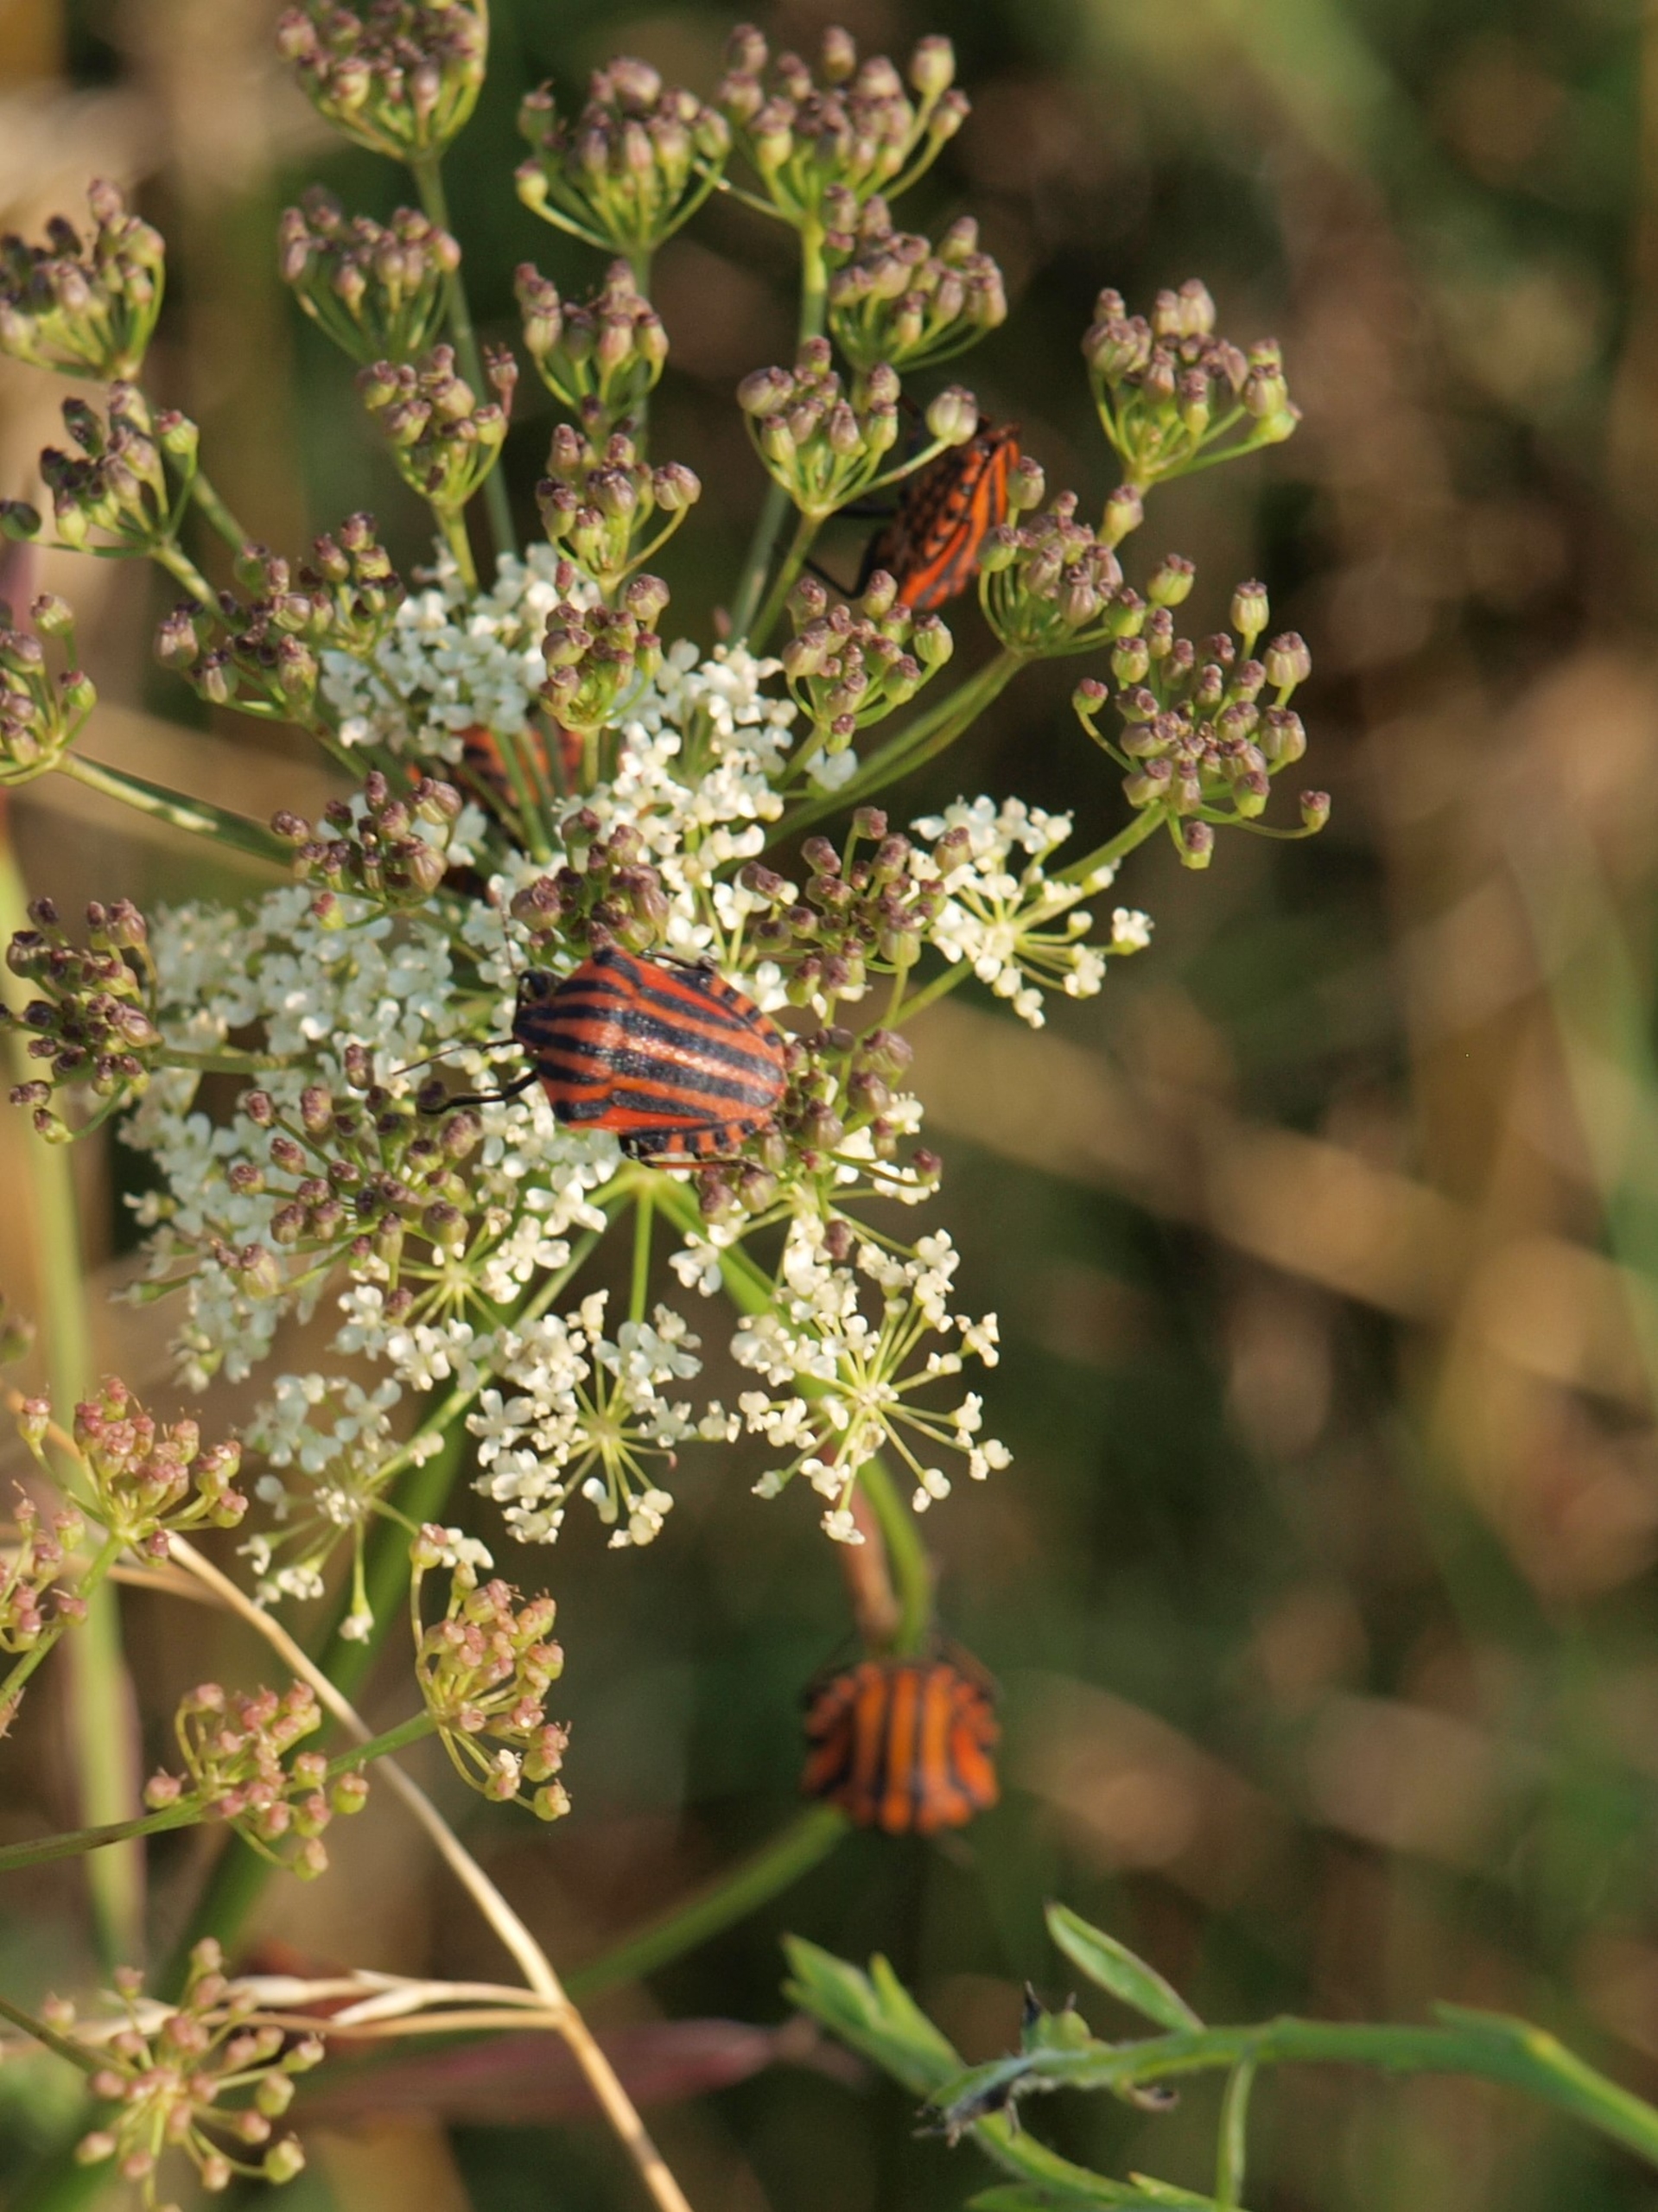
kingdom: Animalia
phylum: Arthropoda
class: Insecta
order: Hemiptera
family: Pentatomidae
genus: Graphosoma
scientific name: Graphosoma italicum
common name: Stribetæge
